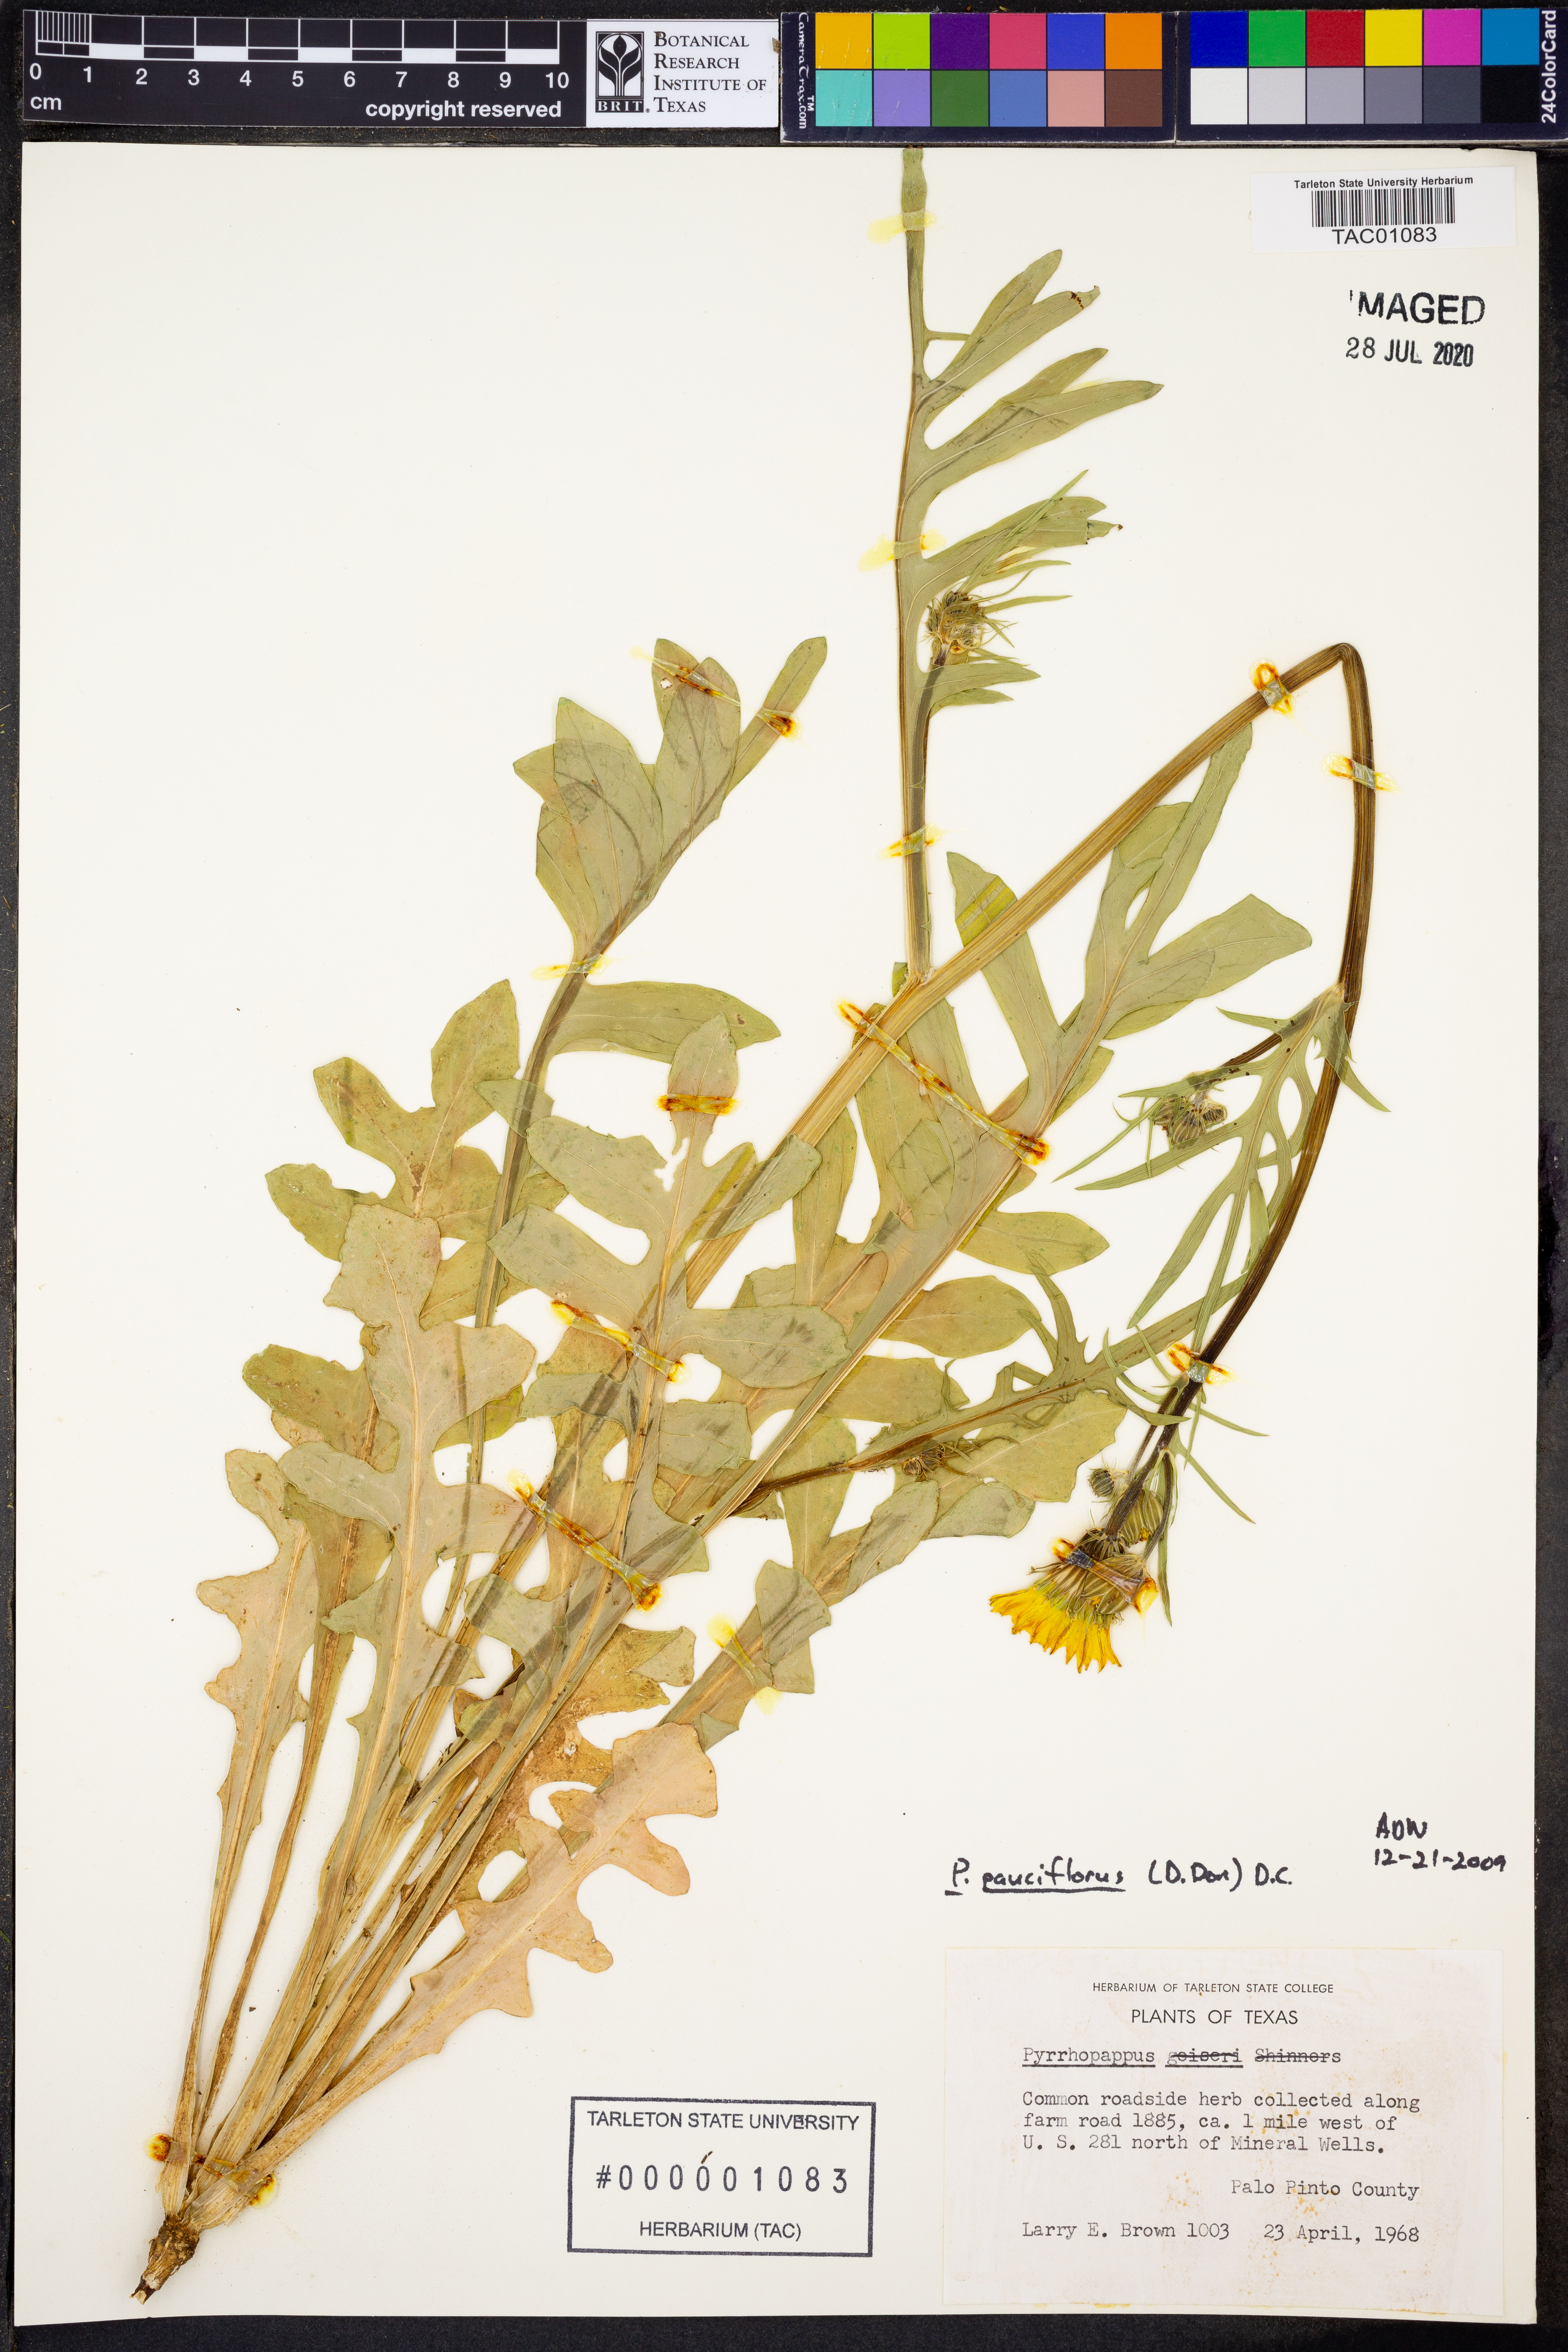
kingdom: Plantae
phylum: Tracheophyta
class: Magnoliopsida
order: Asterales
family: Asteraceae
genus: Pyrrhopappus
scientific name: Pyrrhopappus pauciflorus
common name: Texas false dandelion
